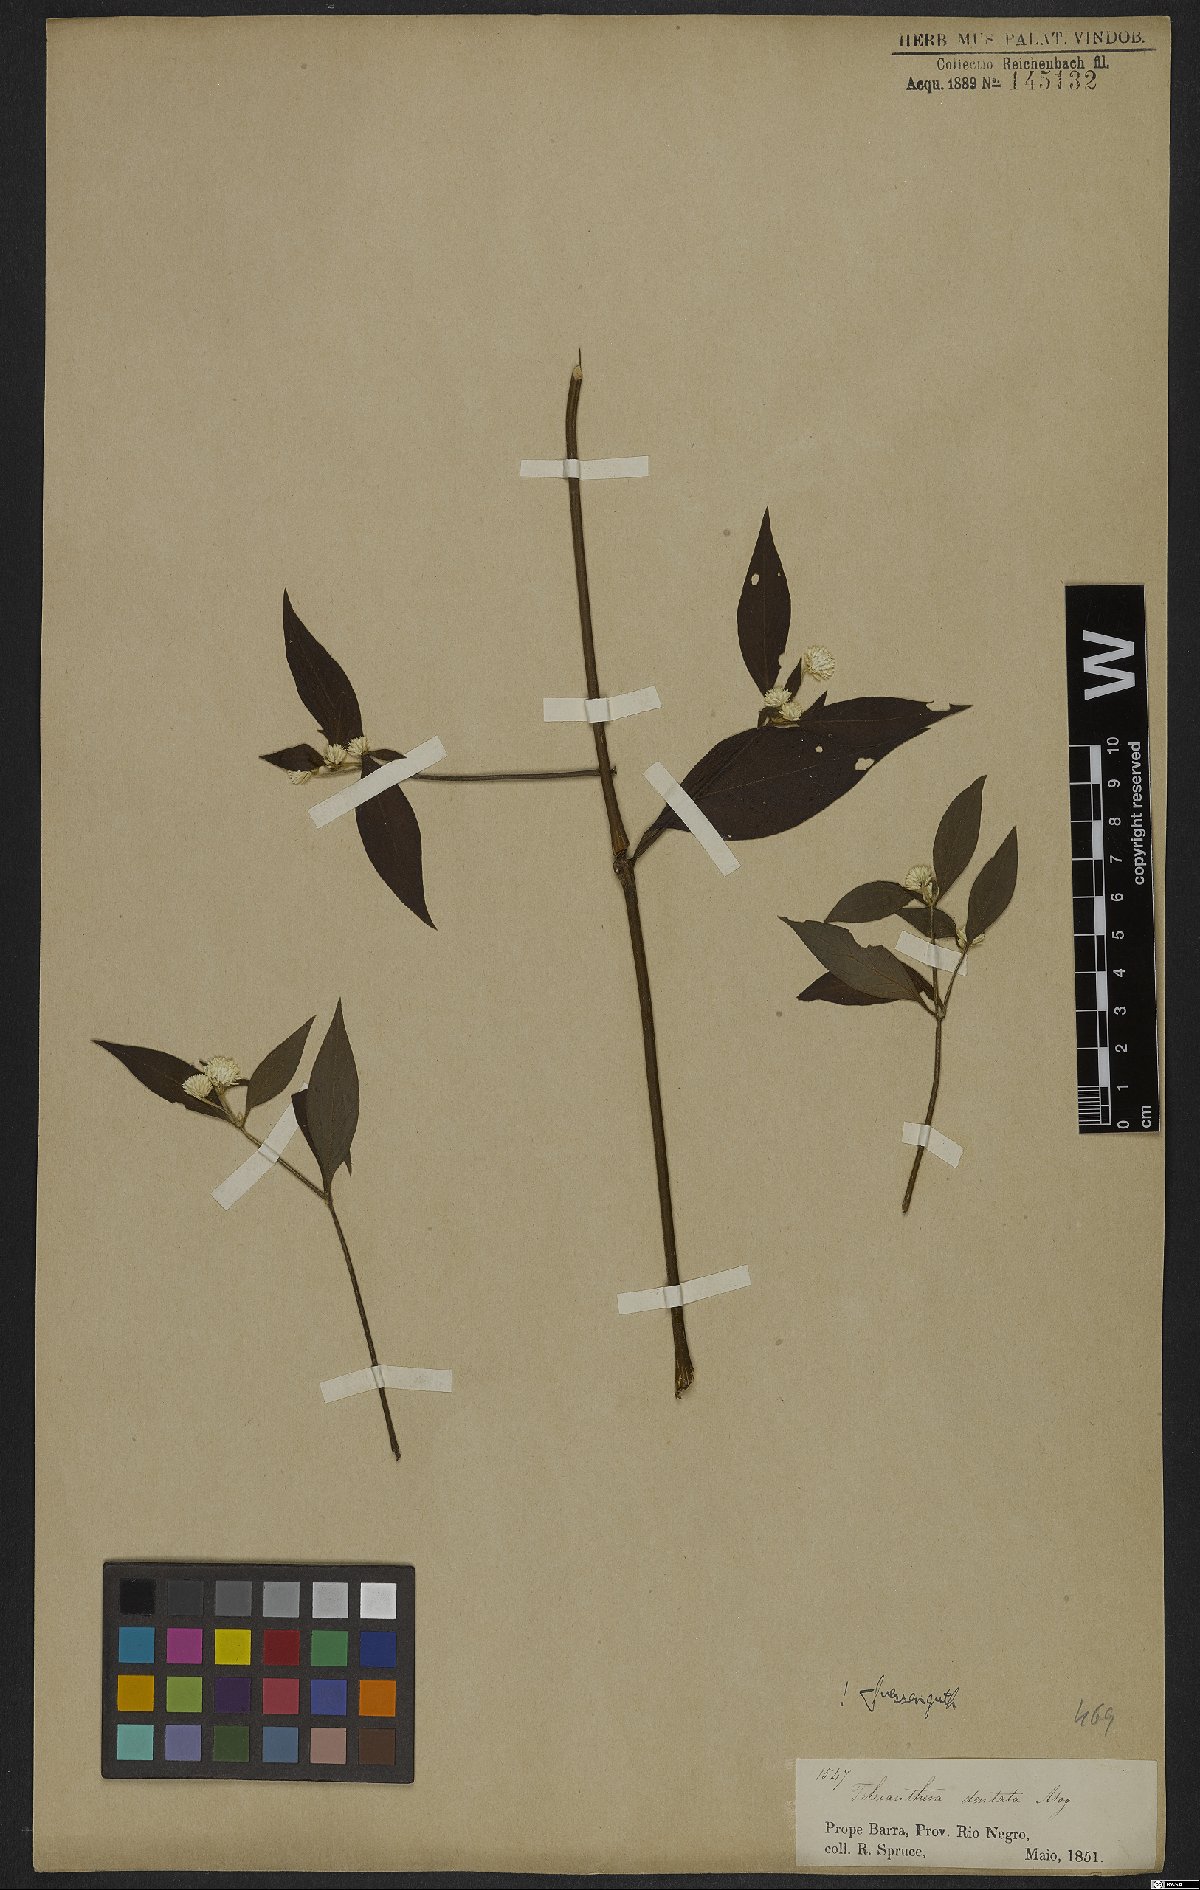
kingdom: Plantae
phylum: Tracheophyta
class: Magnoliopsida
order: Caryophyllales
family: Amaranthaceae
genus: Alternanthera
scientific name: Alternanthera ramosissima
